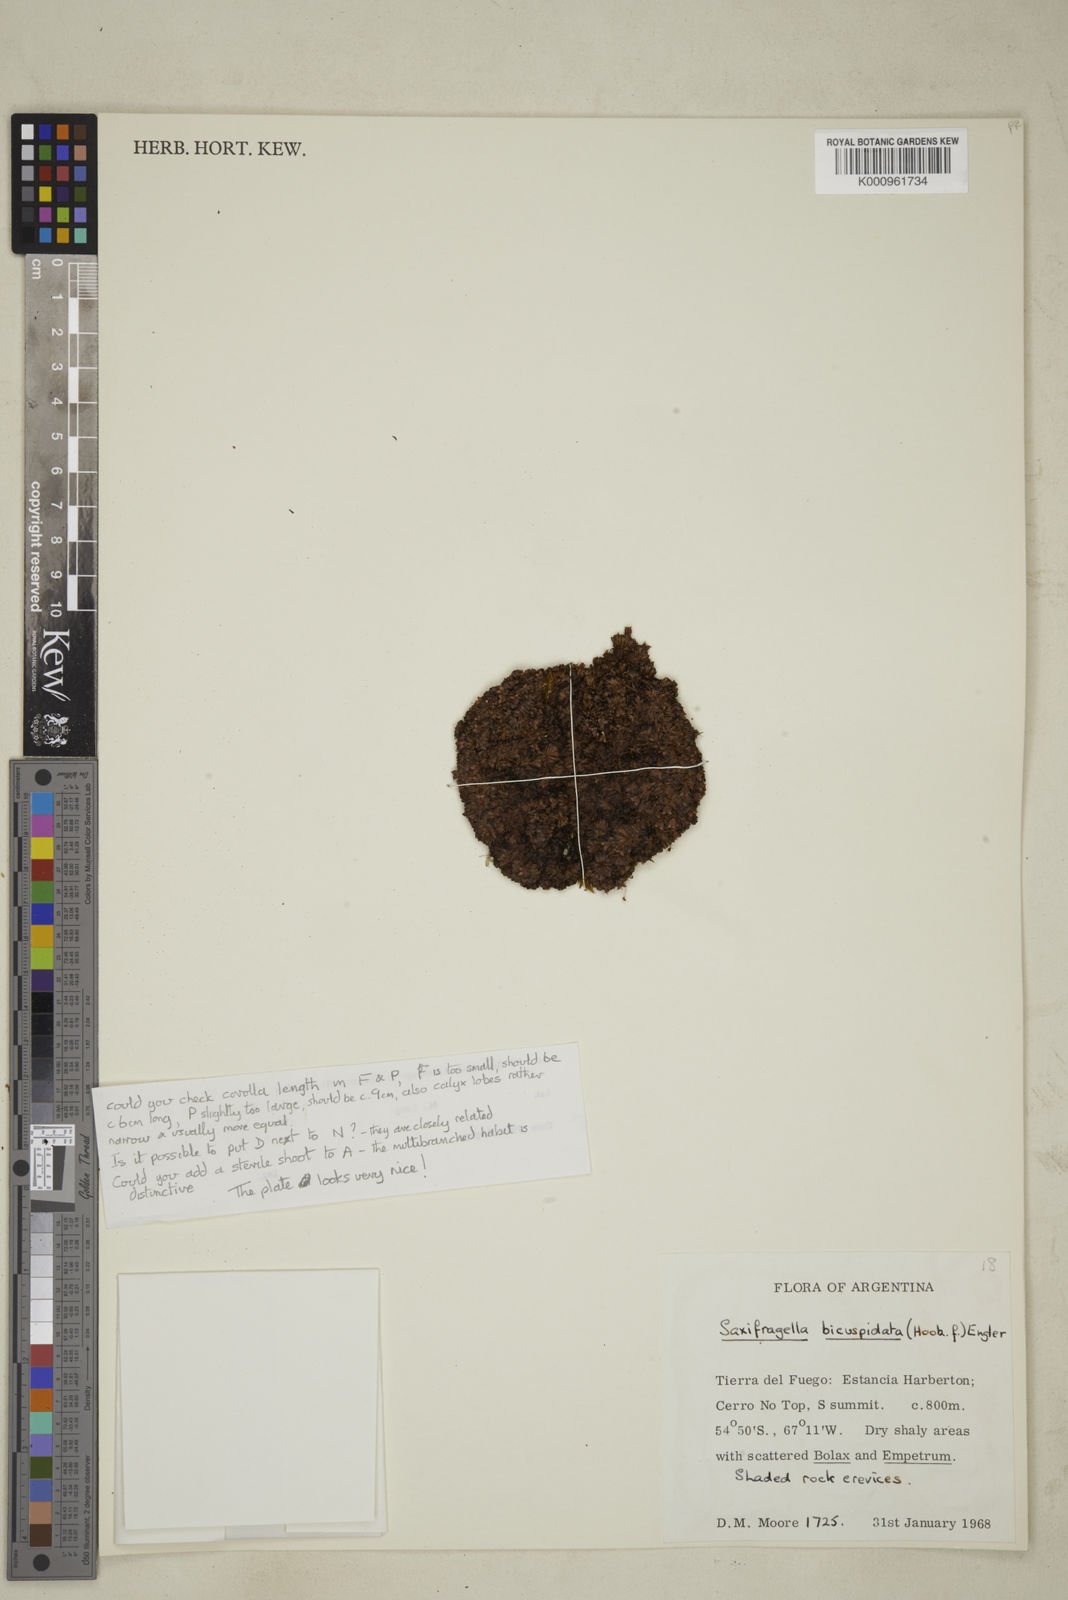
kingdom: Plantae
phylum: Tracheophyta
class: Magnoliopsida
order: Saxifragales
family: Saxifragaceae
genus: Saxifraga
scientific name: Saxifraga bicuspidata
